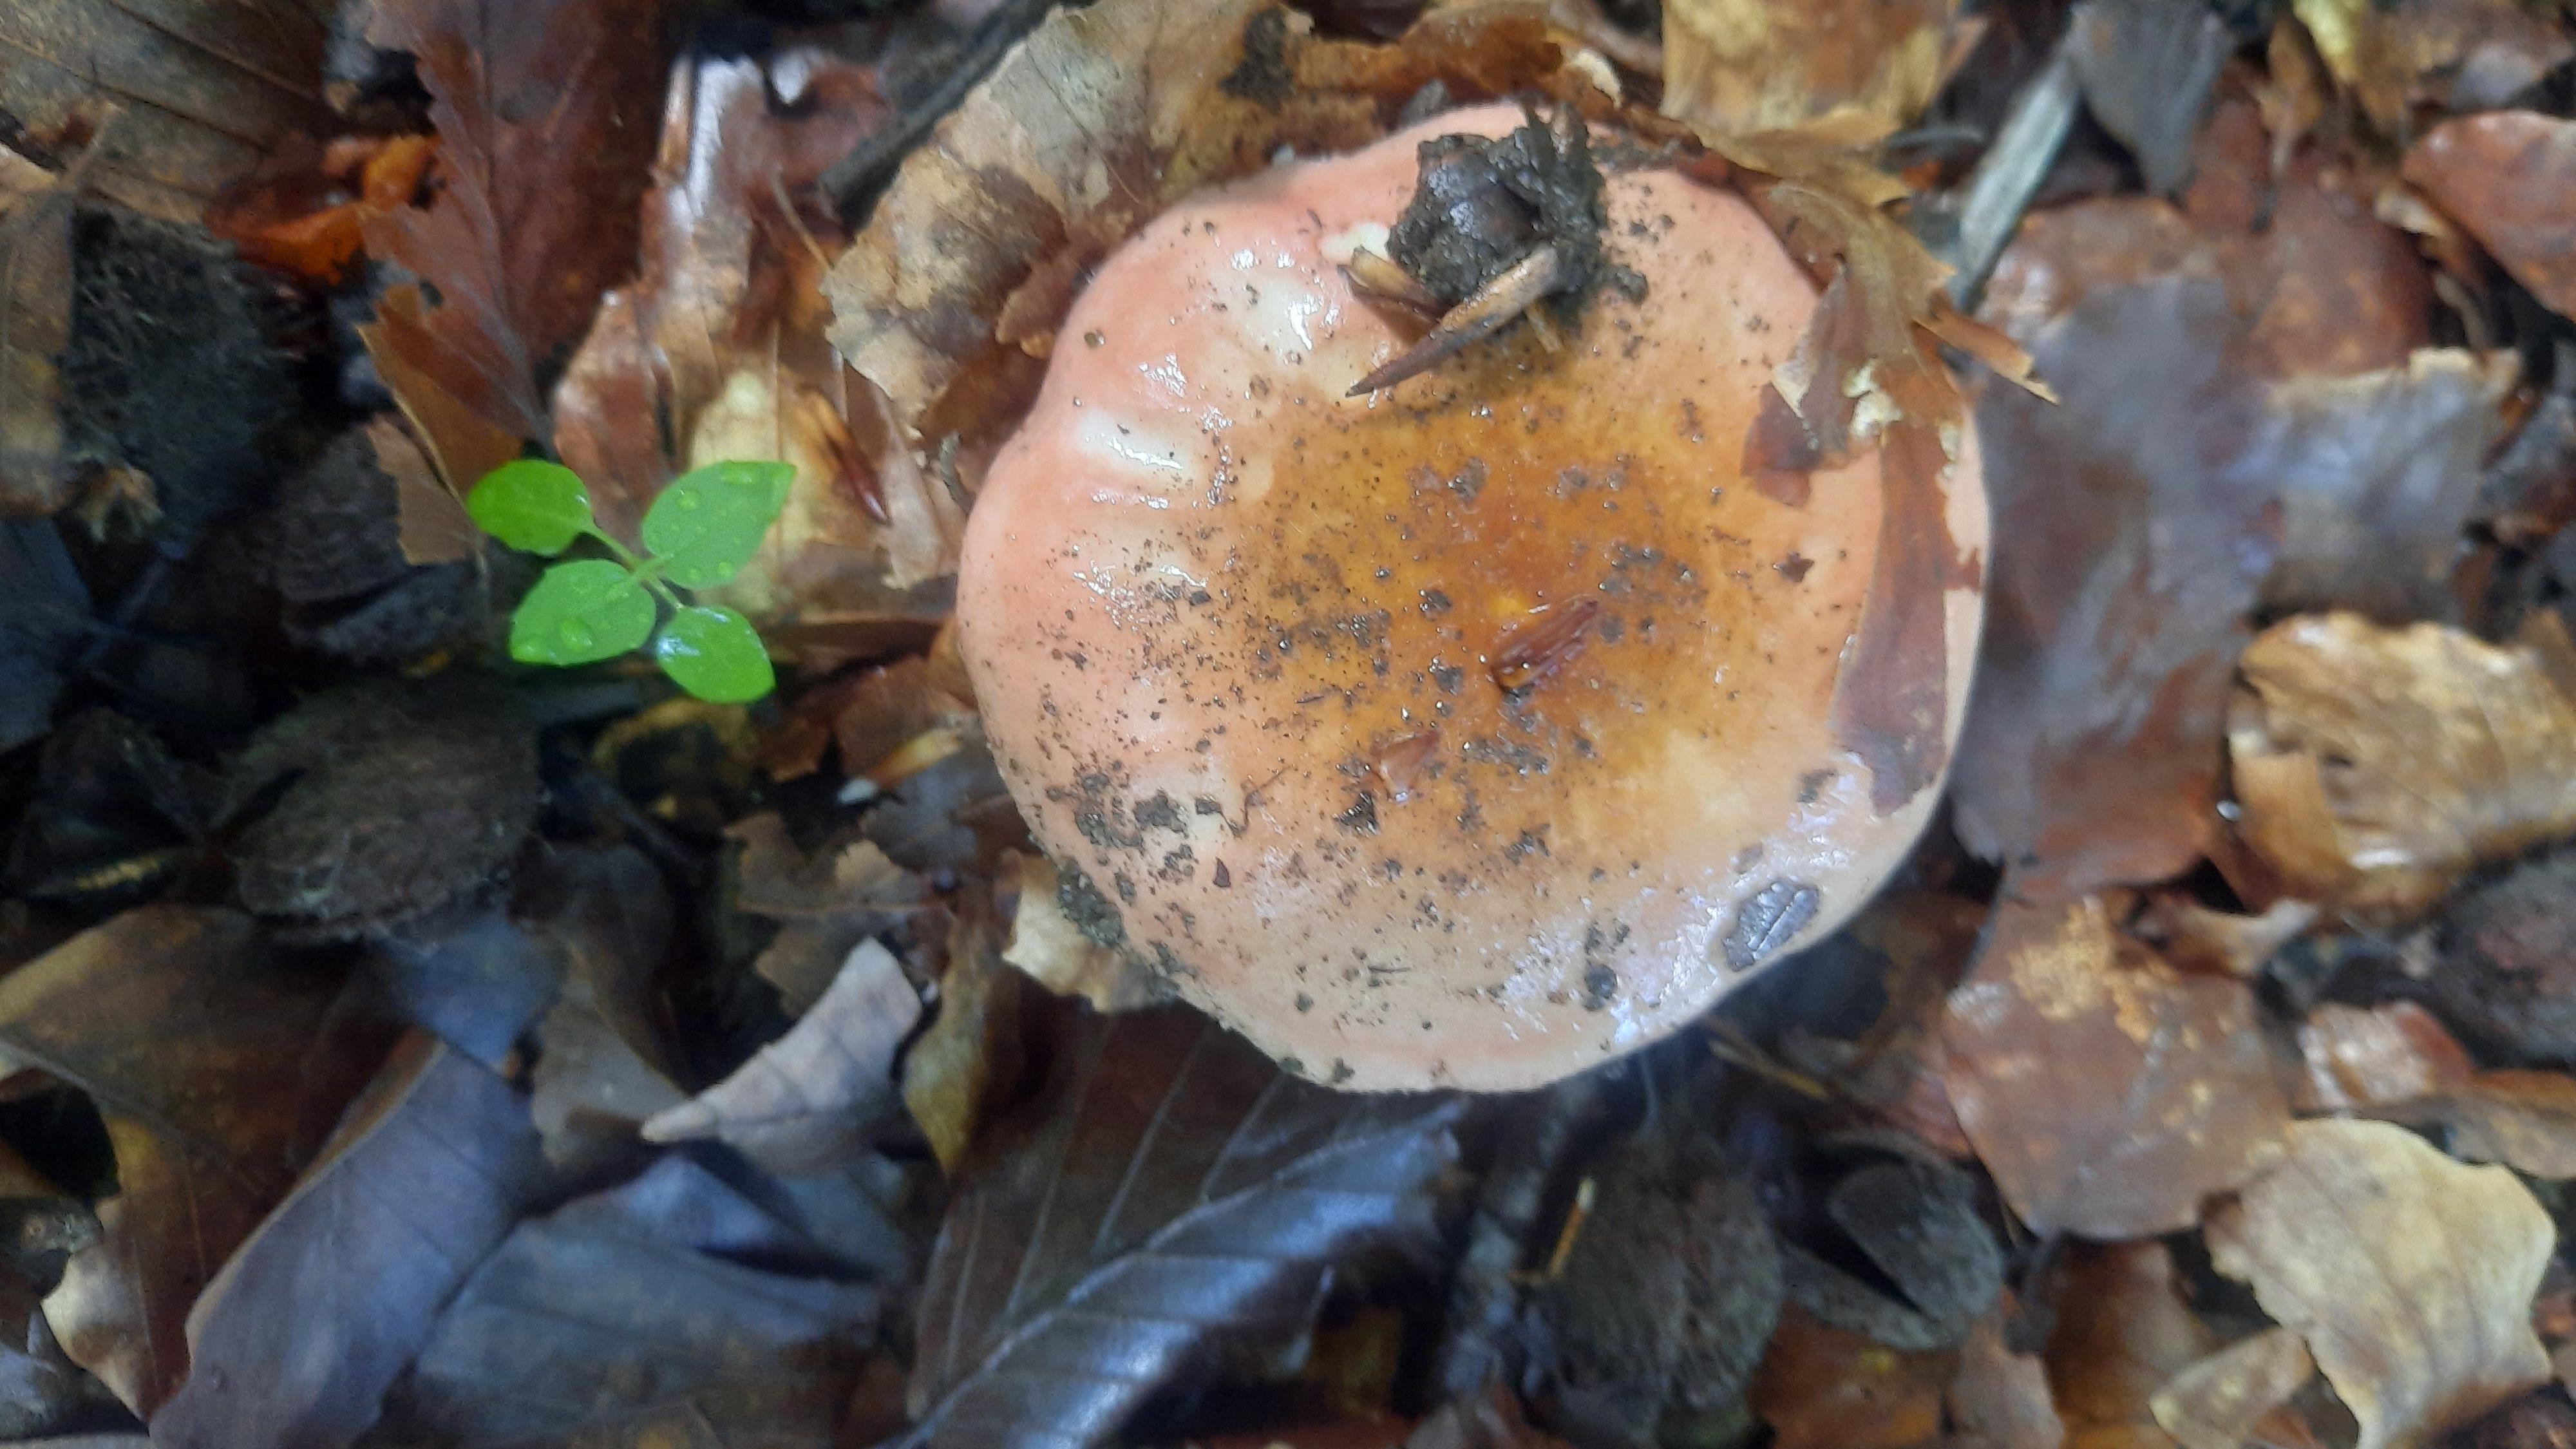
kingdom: Fungi
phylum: Basidiomycota
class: Agaricomycetes
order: Russulales
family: Russulaceae
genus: Russula
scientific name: Russula
